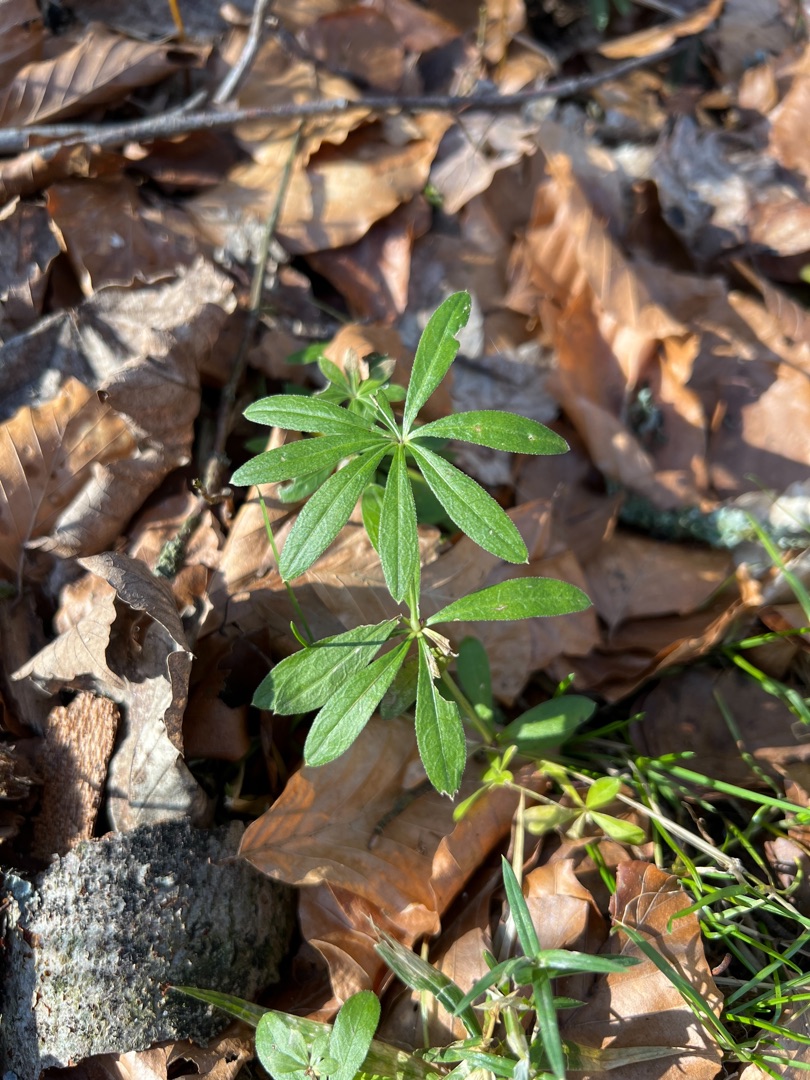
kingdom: Plantae
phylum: Tracheophyta
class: Magnoliopsida
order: Gentianales
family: Rubiaceae
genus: Galium
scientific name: Galium odoratum
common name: Skovmærke
